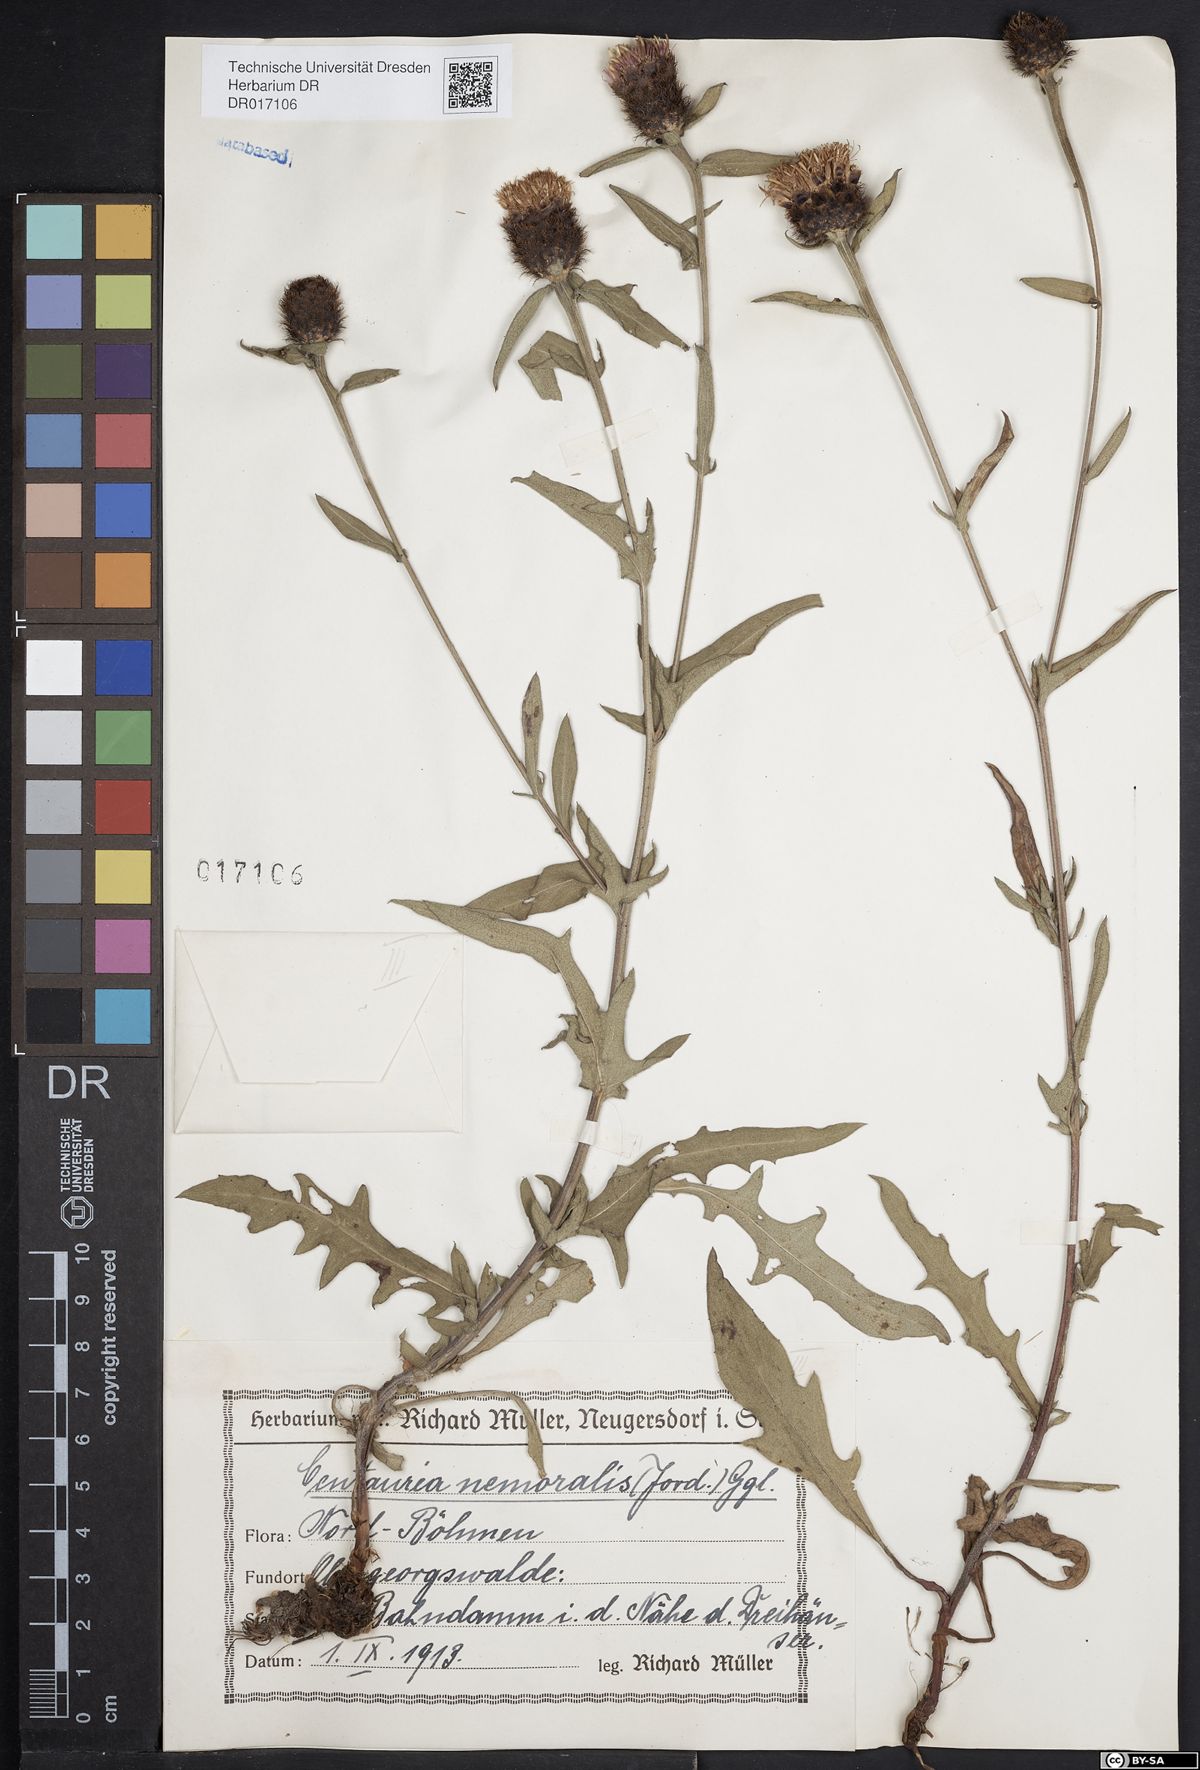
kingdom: Plantae
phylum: Tracheophyta
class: Magnoliopsida
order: Asterales
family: Asteraceae
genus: Centaurea
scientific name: Centaurea nigra
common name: Lesser knapweed
